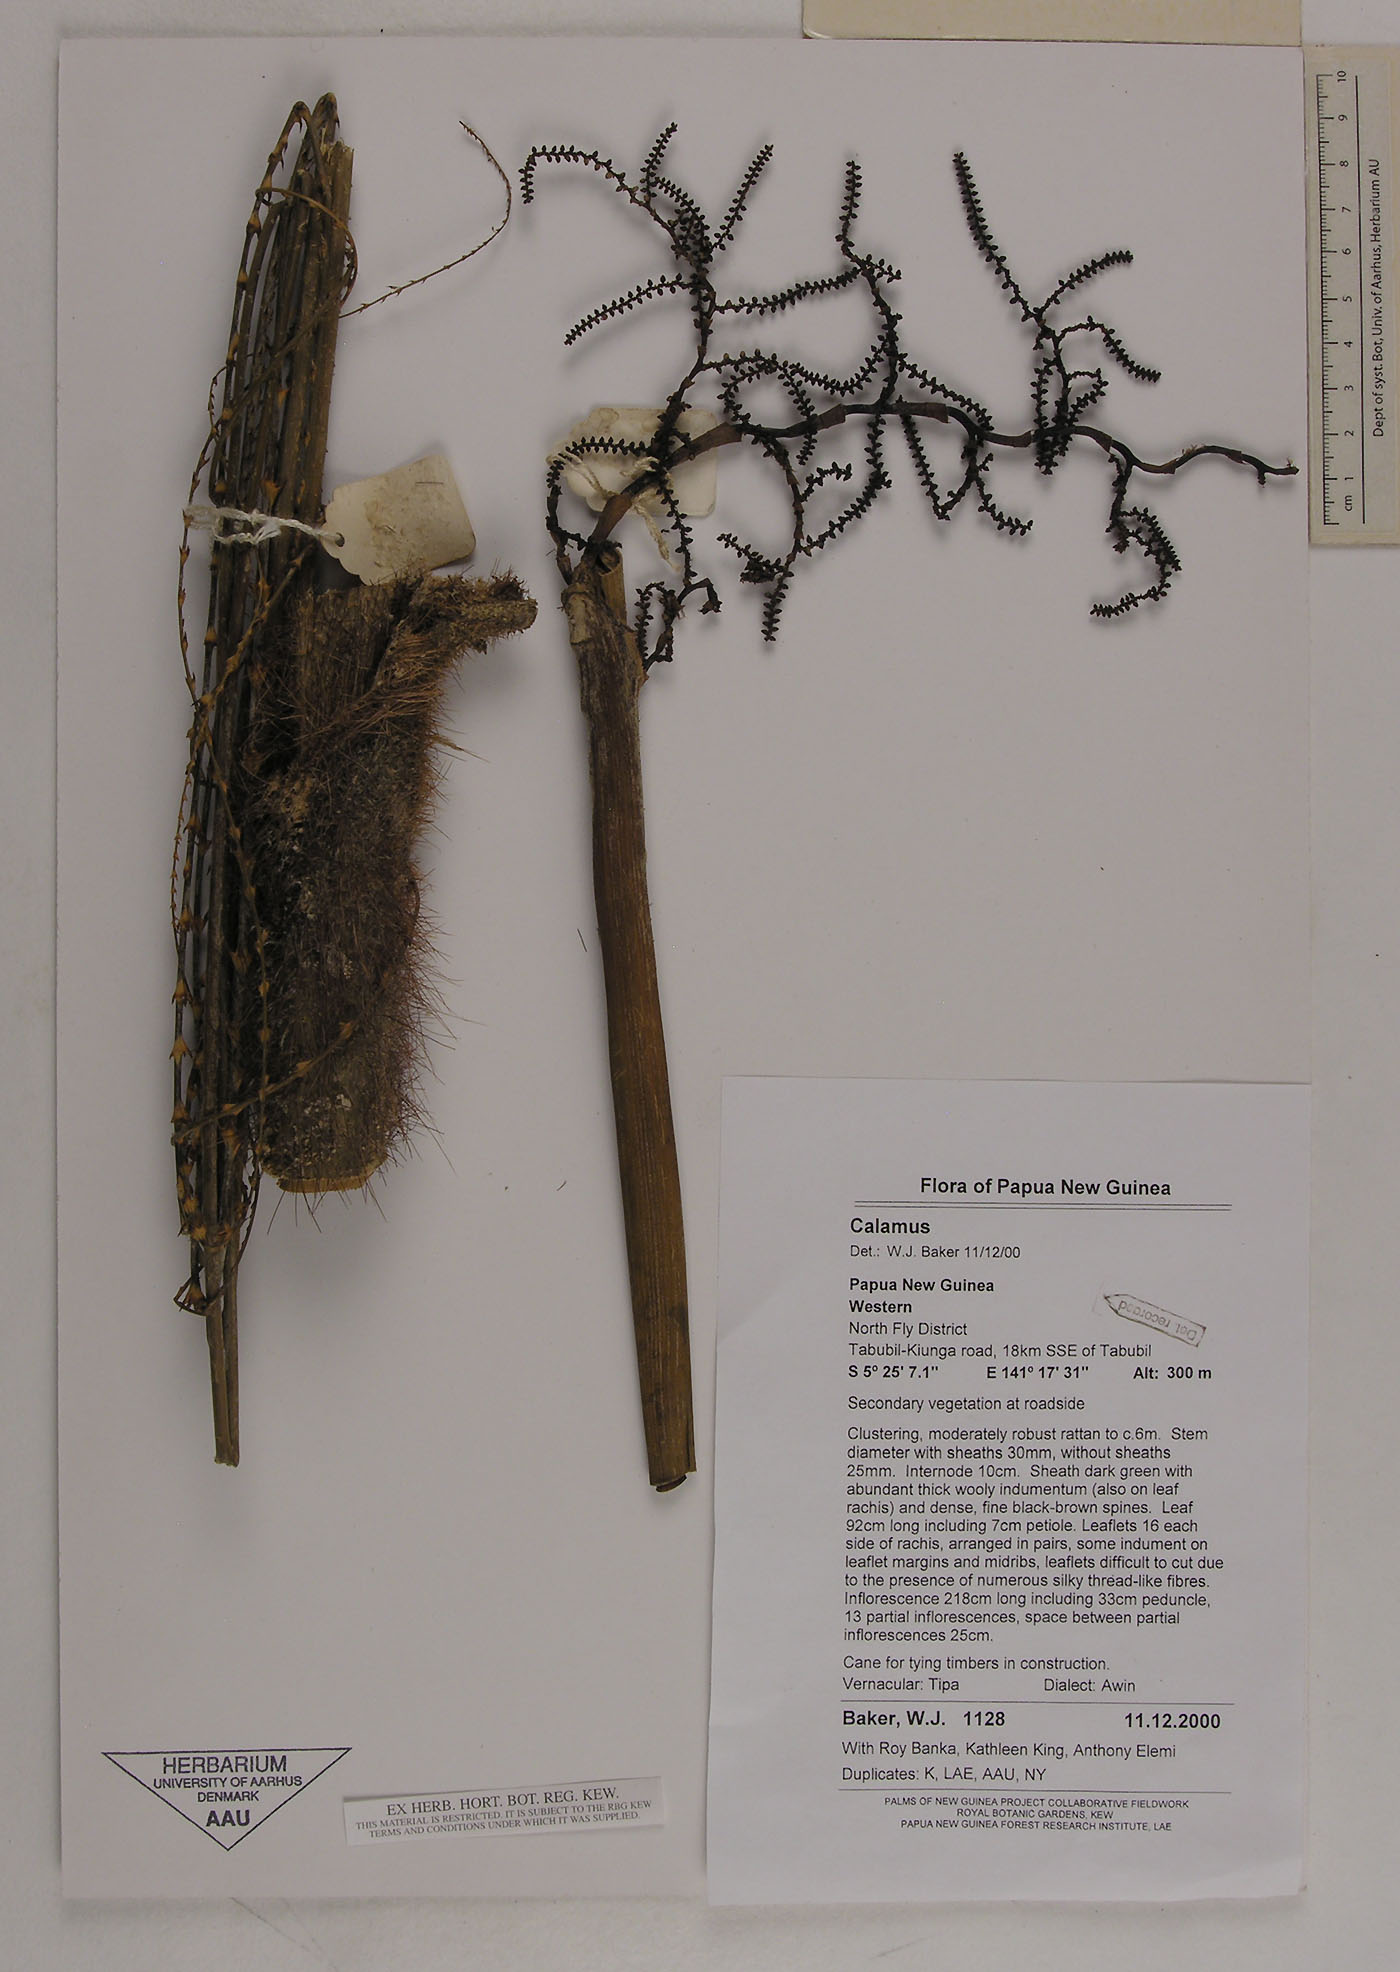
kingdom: Plantae
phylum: Tracheophyta
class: Liliopsida
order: Arecales
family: Arecaceae
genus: Calamus
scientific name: Calamus
